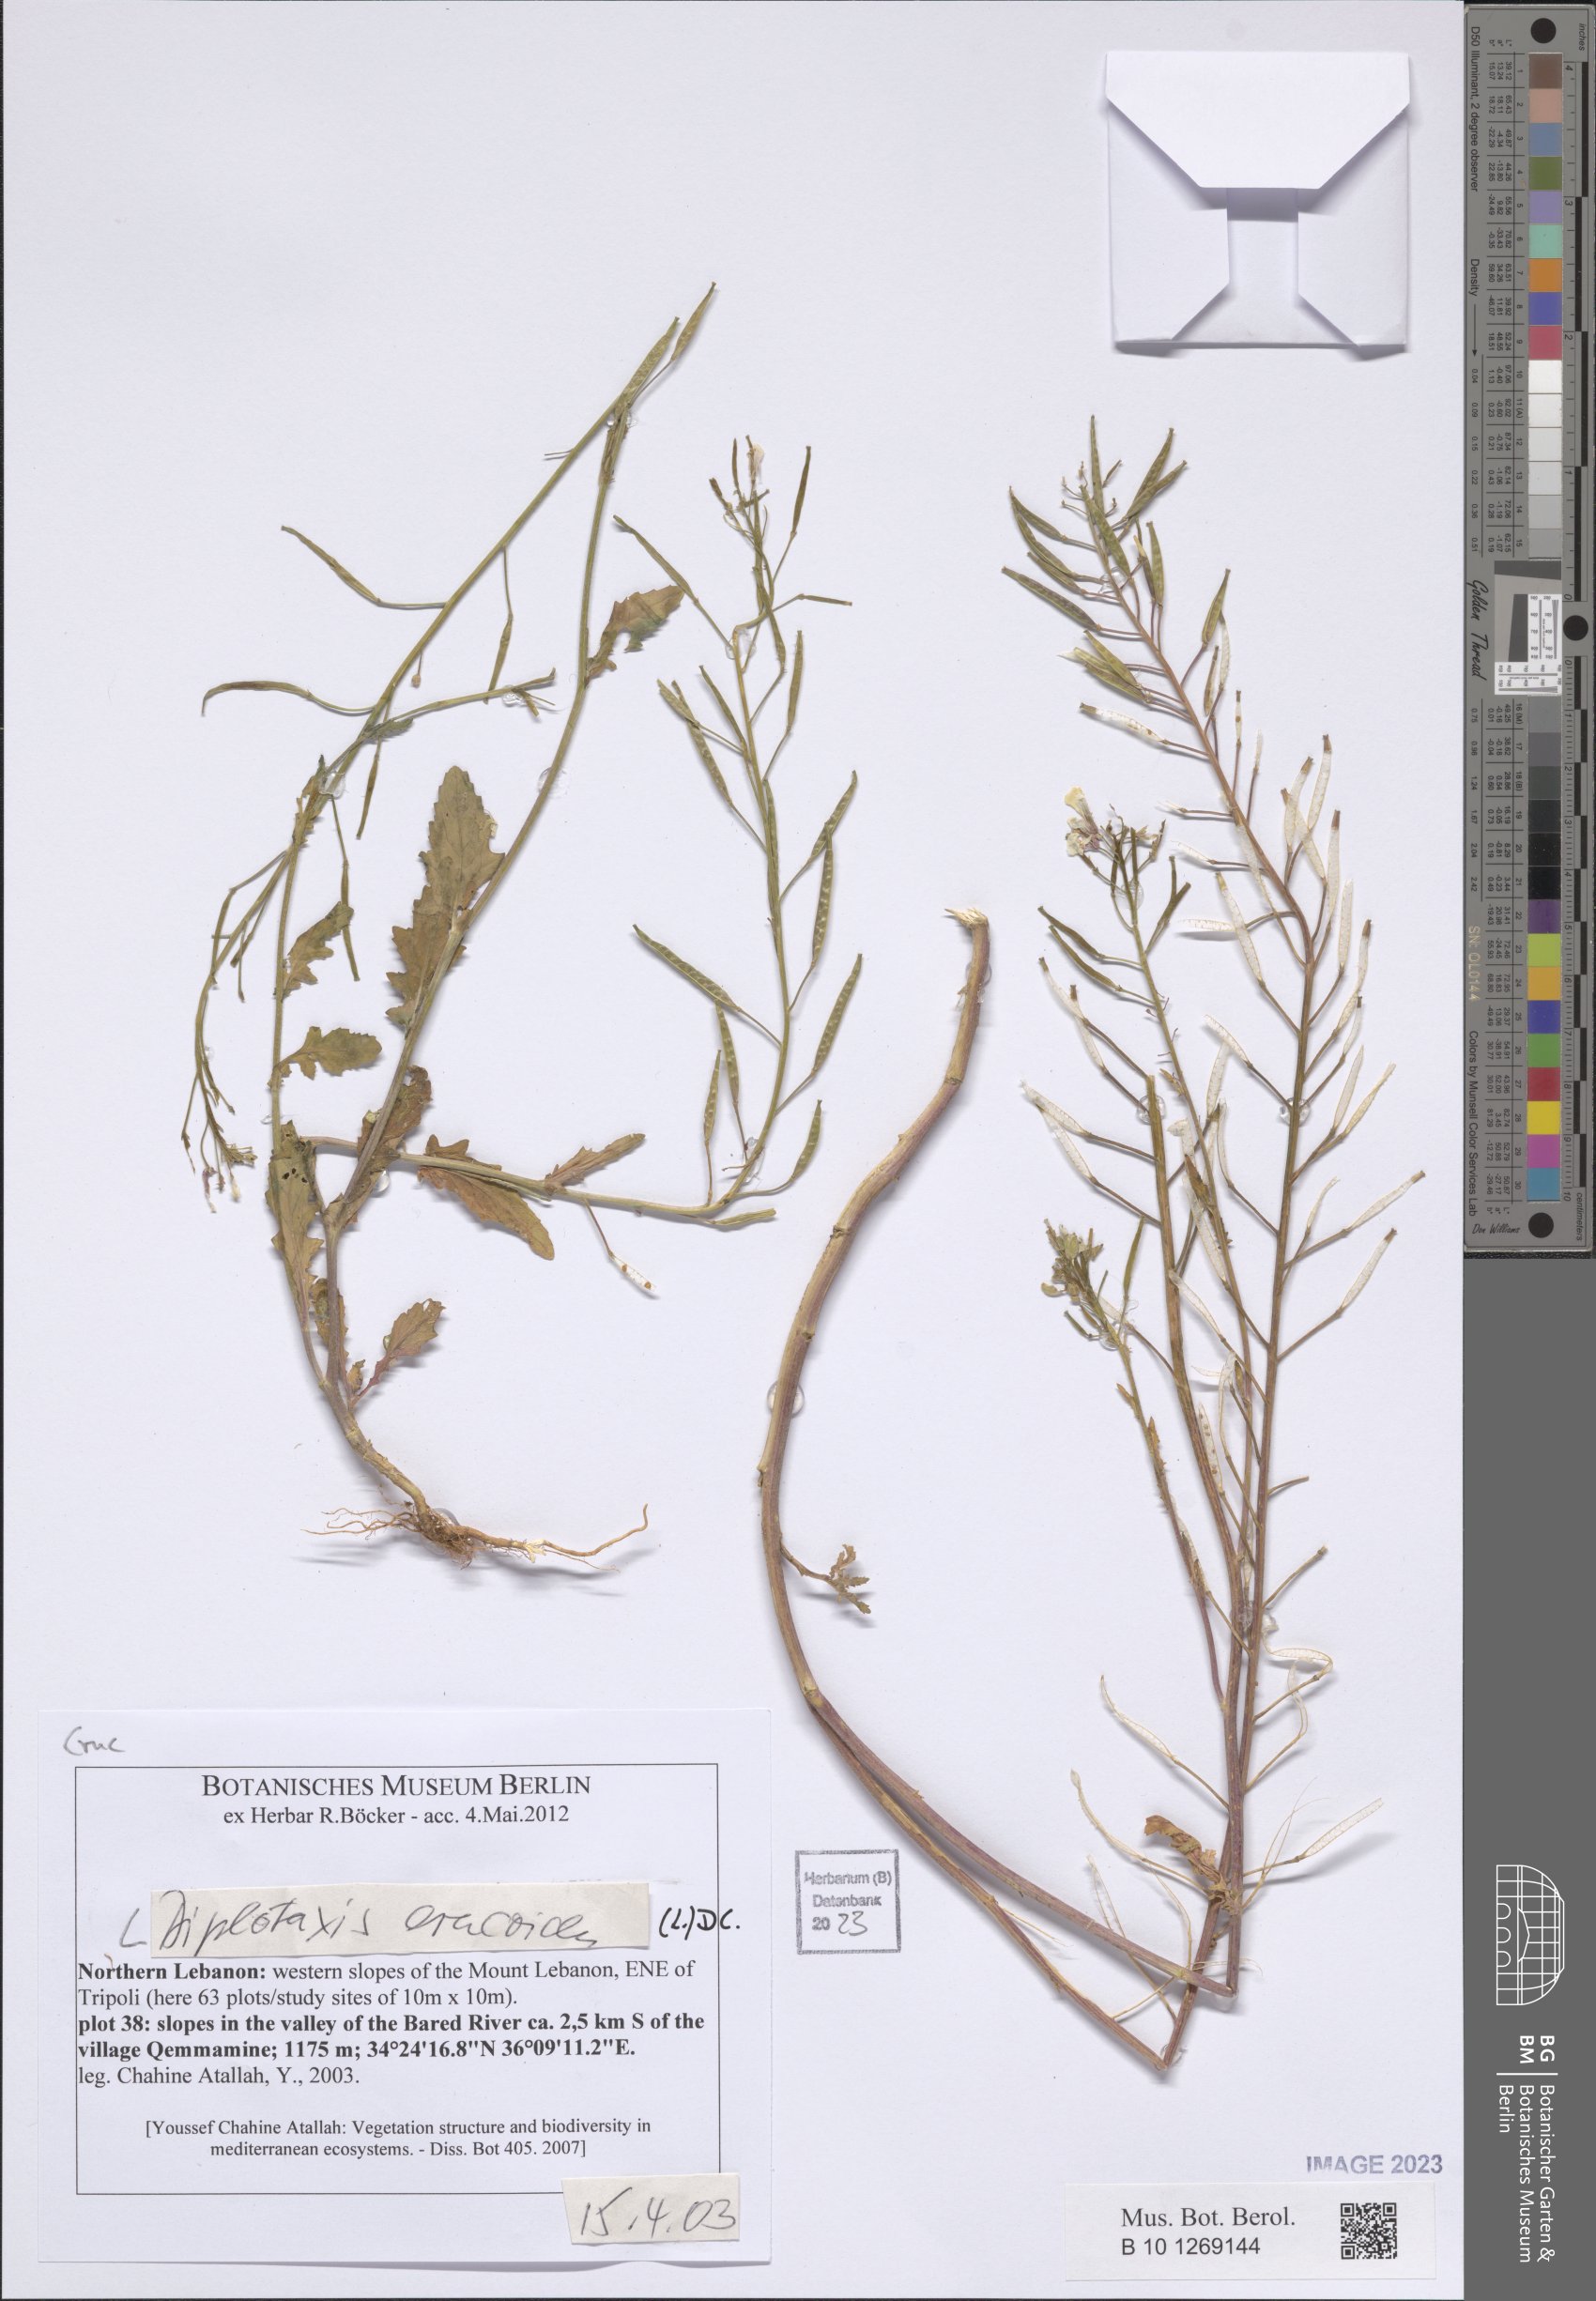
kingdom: Plantae
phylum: Tracheophyta
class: Magnoliopsida
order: Brassicales
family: Brassicaceae
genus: Diplotaxis
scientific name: Diplotaxis erucoides
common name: White rocket
